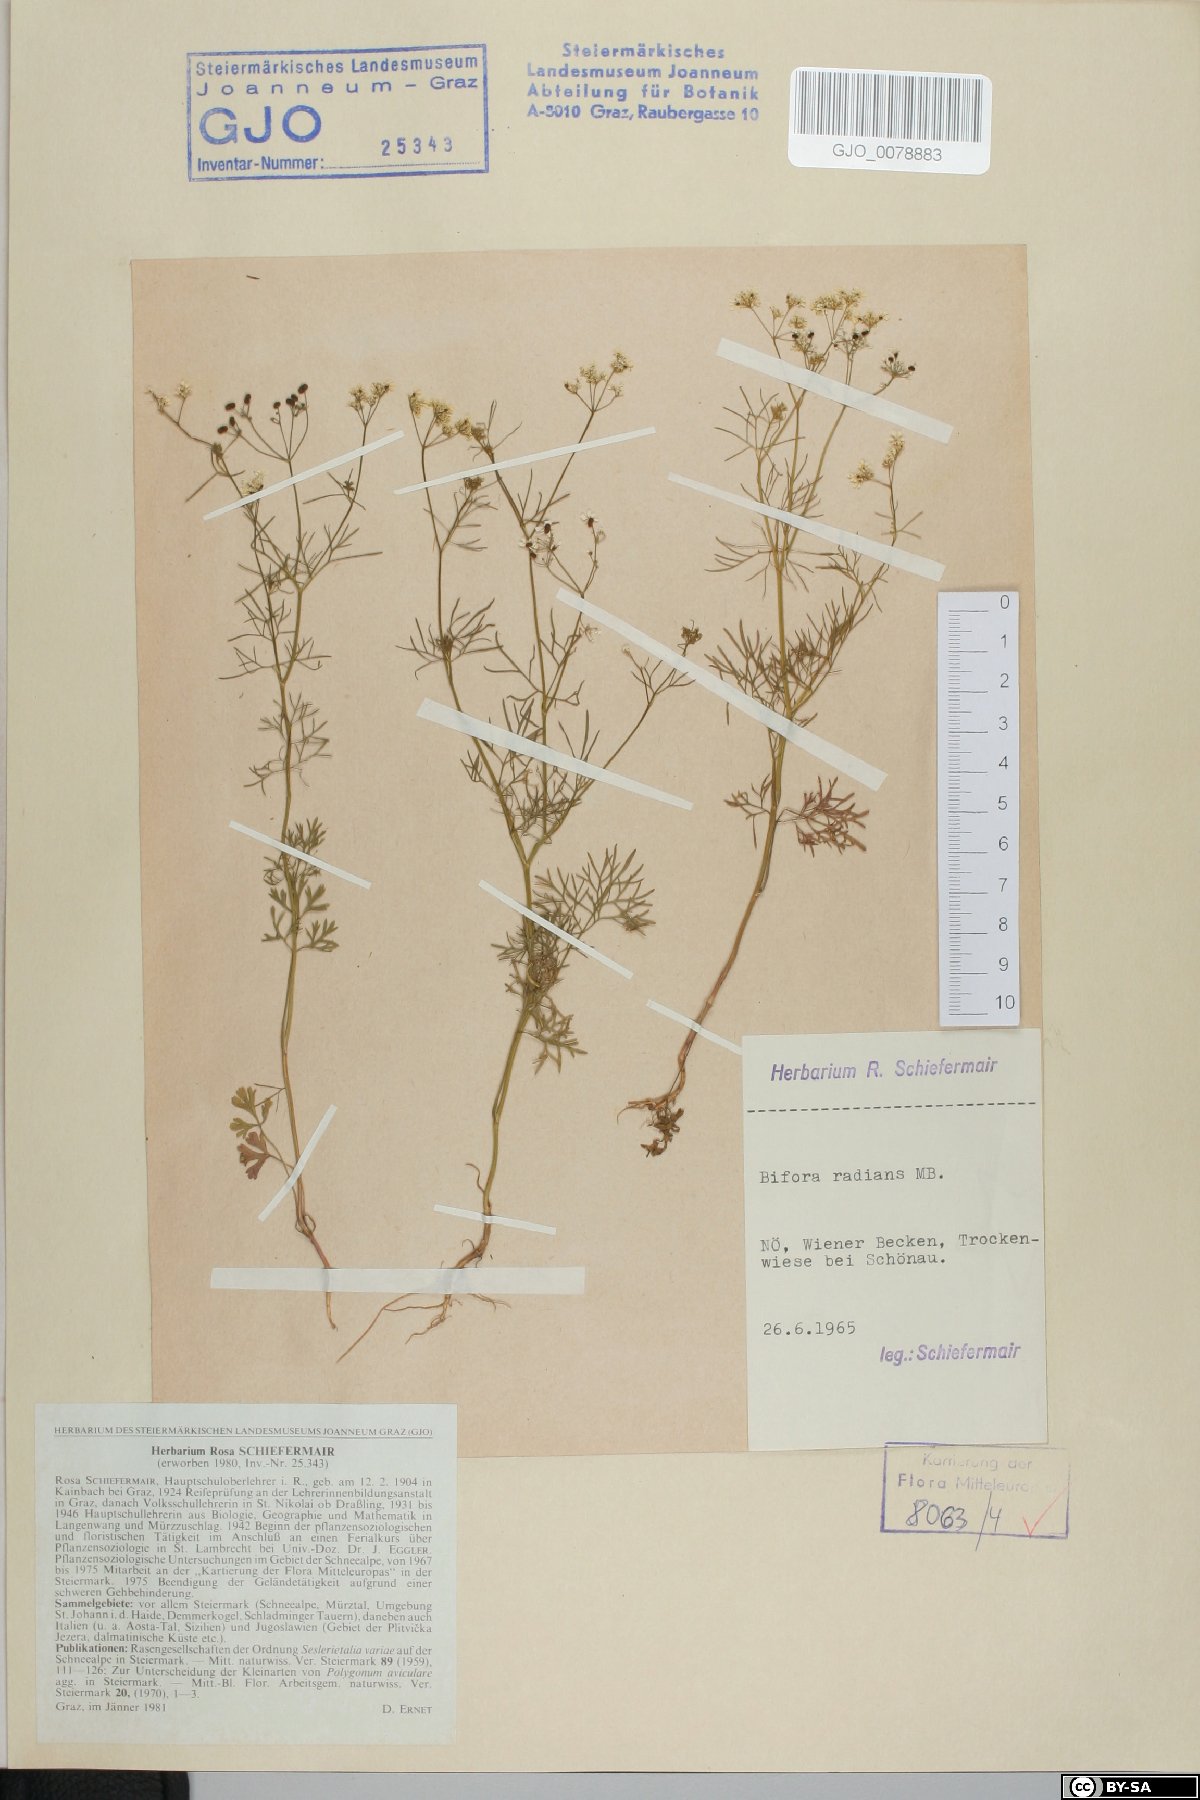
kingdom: Plantae
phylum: Tracheophyta
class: Magnoliopsida
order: Apiales
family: Apiaceae
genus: Bifora
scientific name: Bifora radians
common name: Wild bishop
